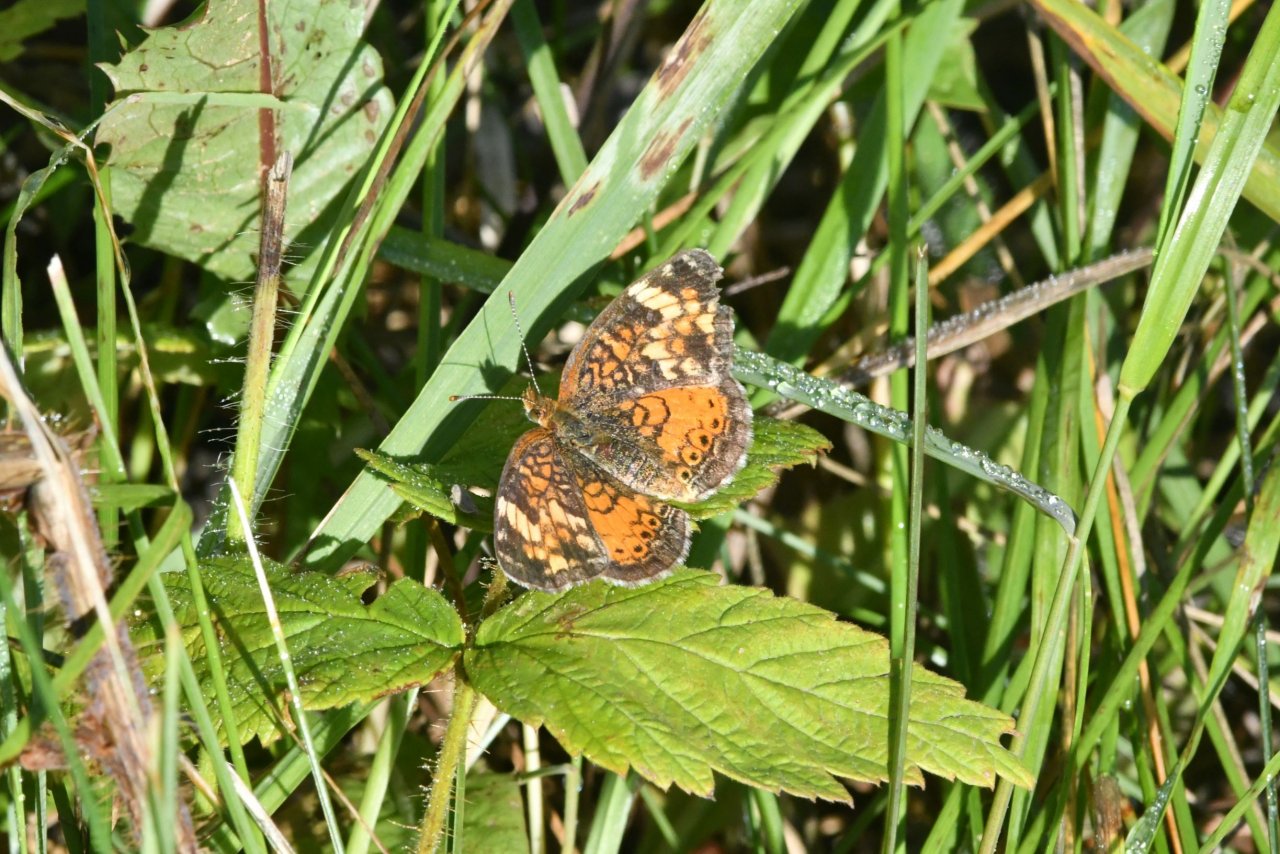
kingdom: Animalia
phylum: Arthropoda
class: Insecta
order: Lepidoptera
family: Nymphalidae
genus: Phyciodes
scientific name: Phyciodes tharos
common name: Northern Crescent
